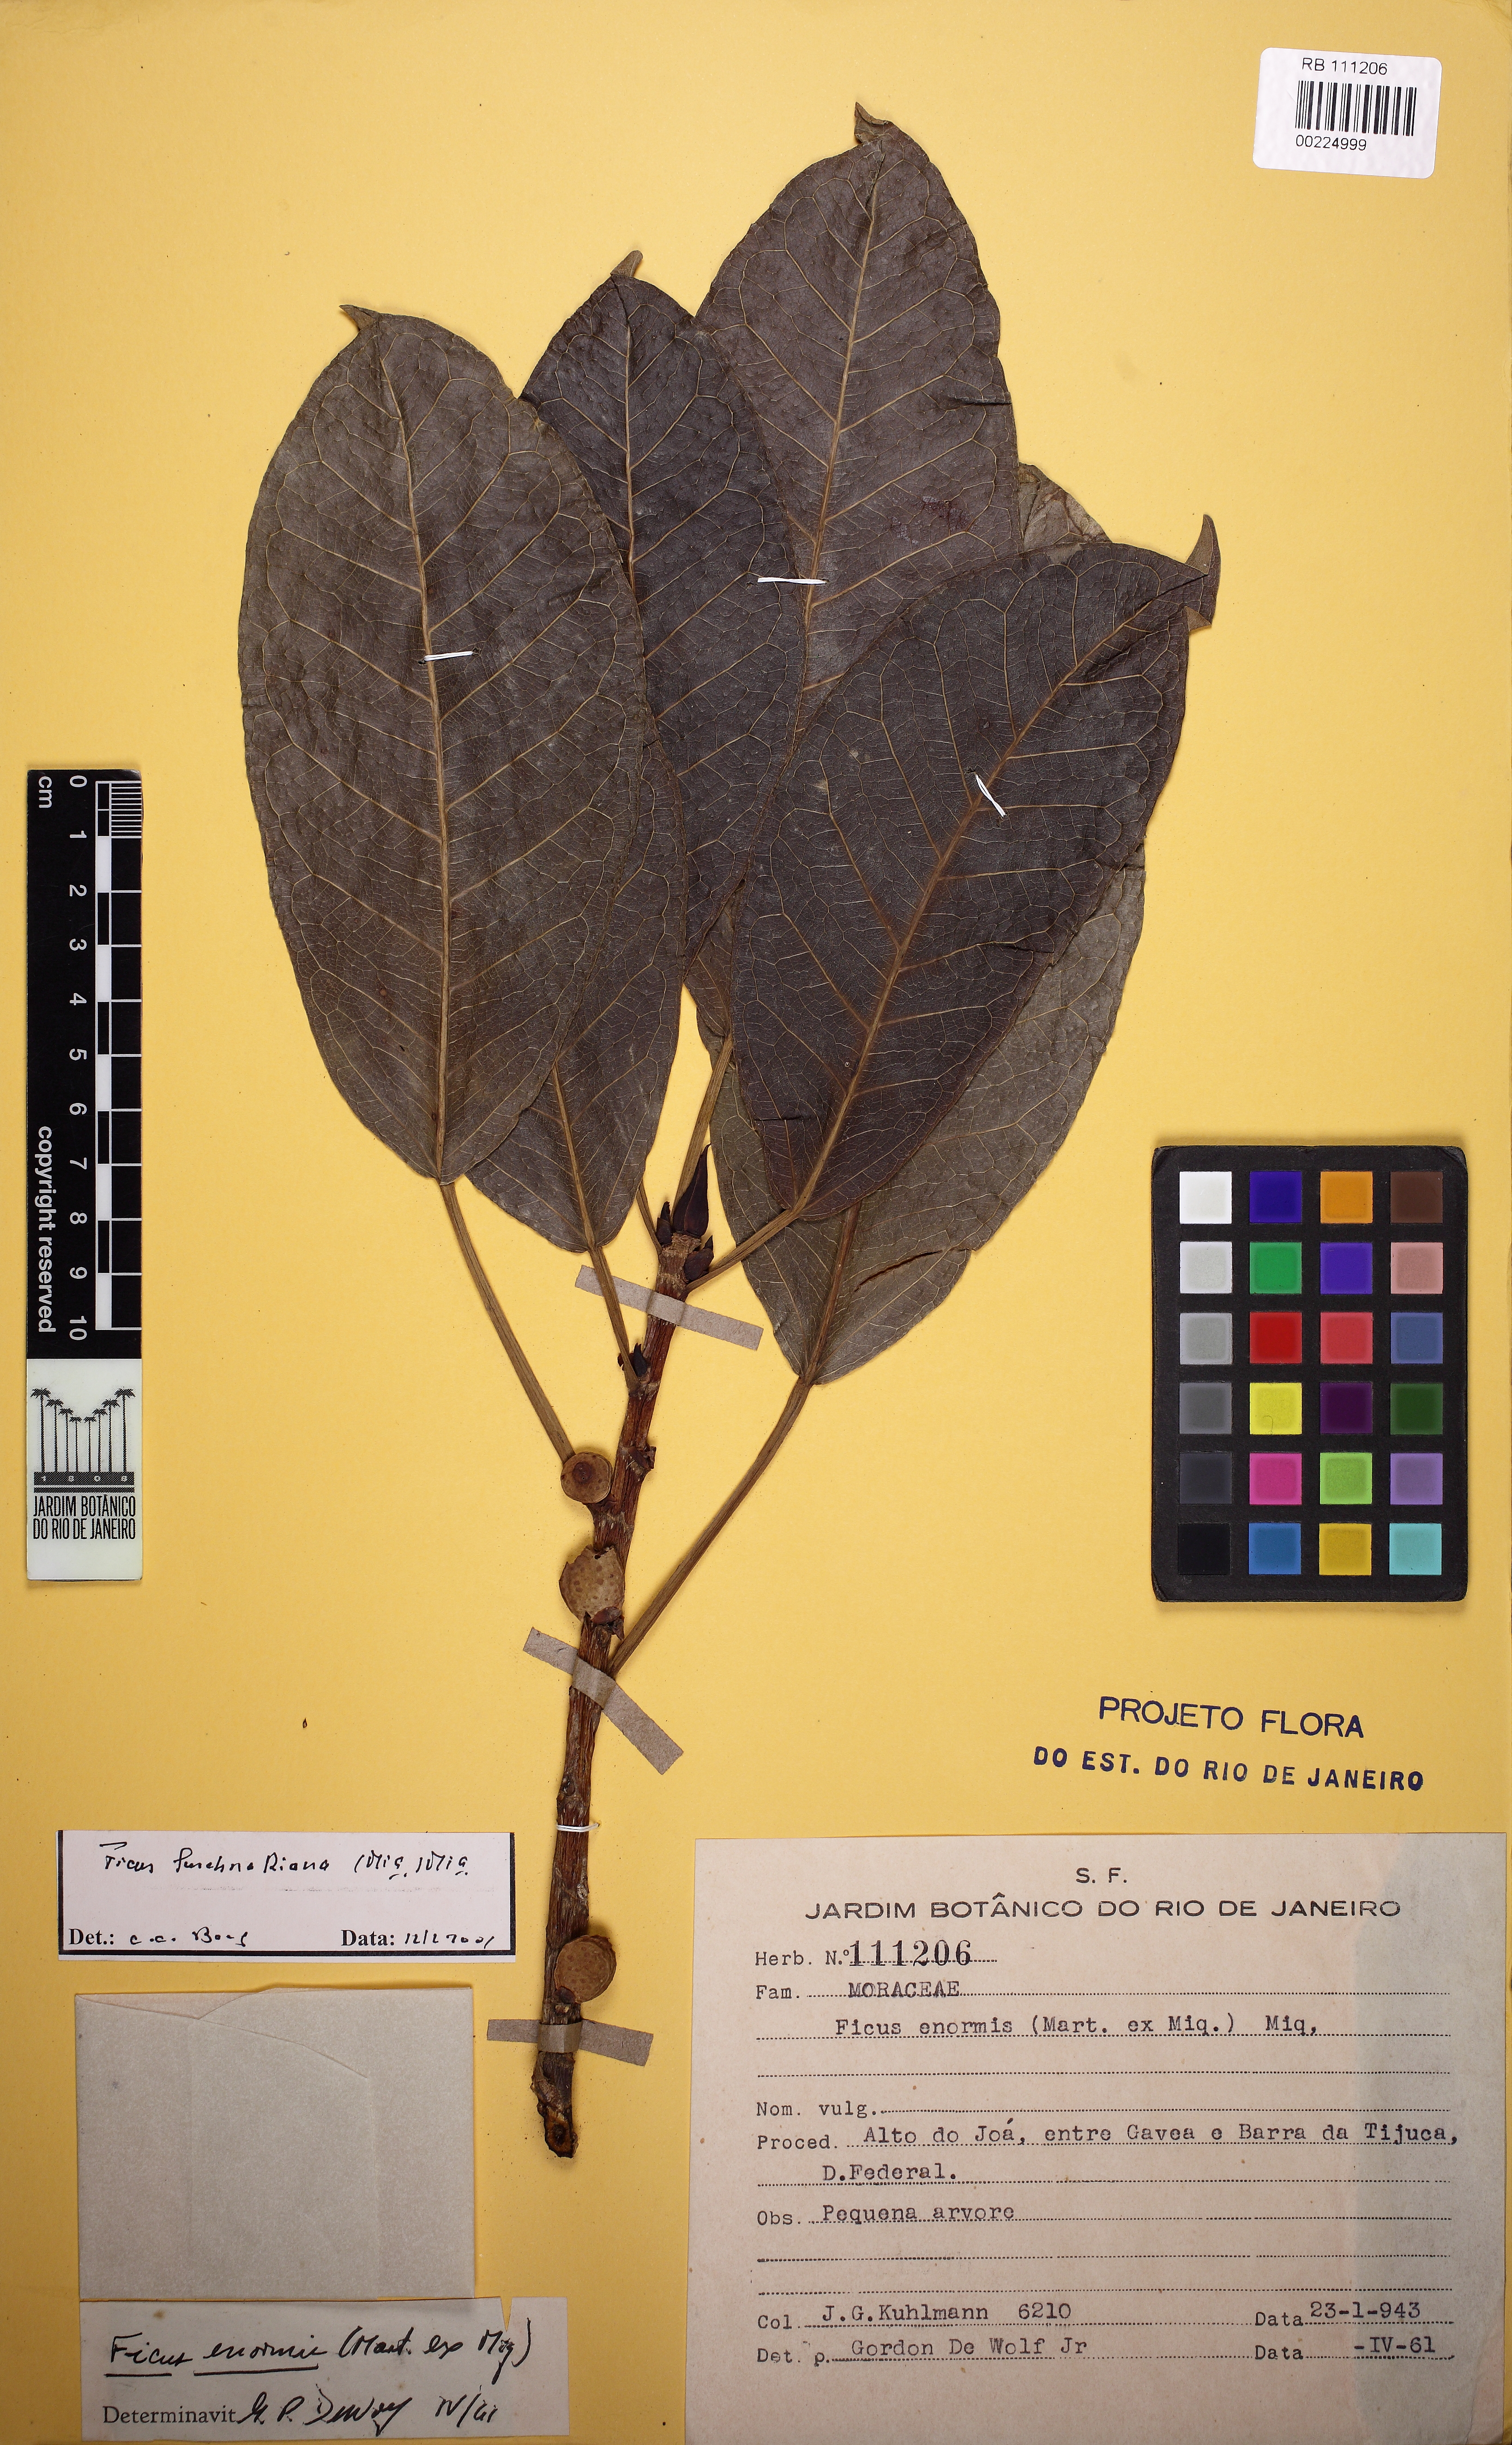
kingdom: Plantae
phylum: Tracheophyta
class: Magnoliopsida
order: Rosales
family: Moraceae
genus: Ficus
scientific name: Ficus luschnathiana
